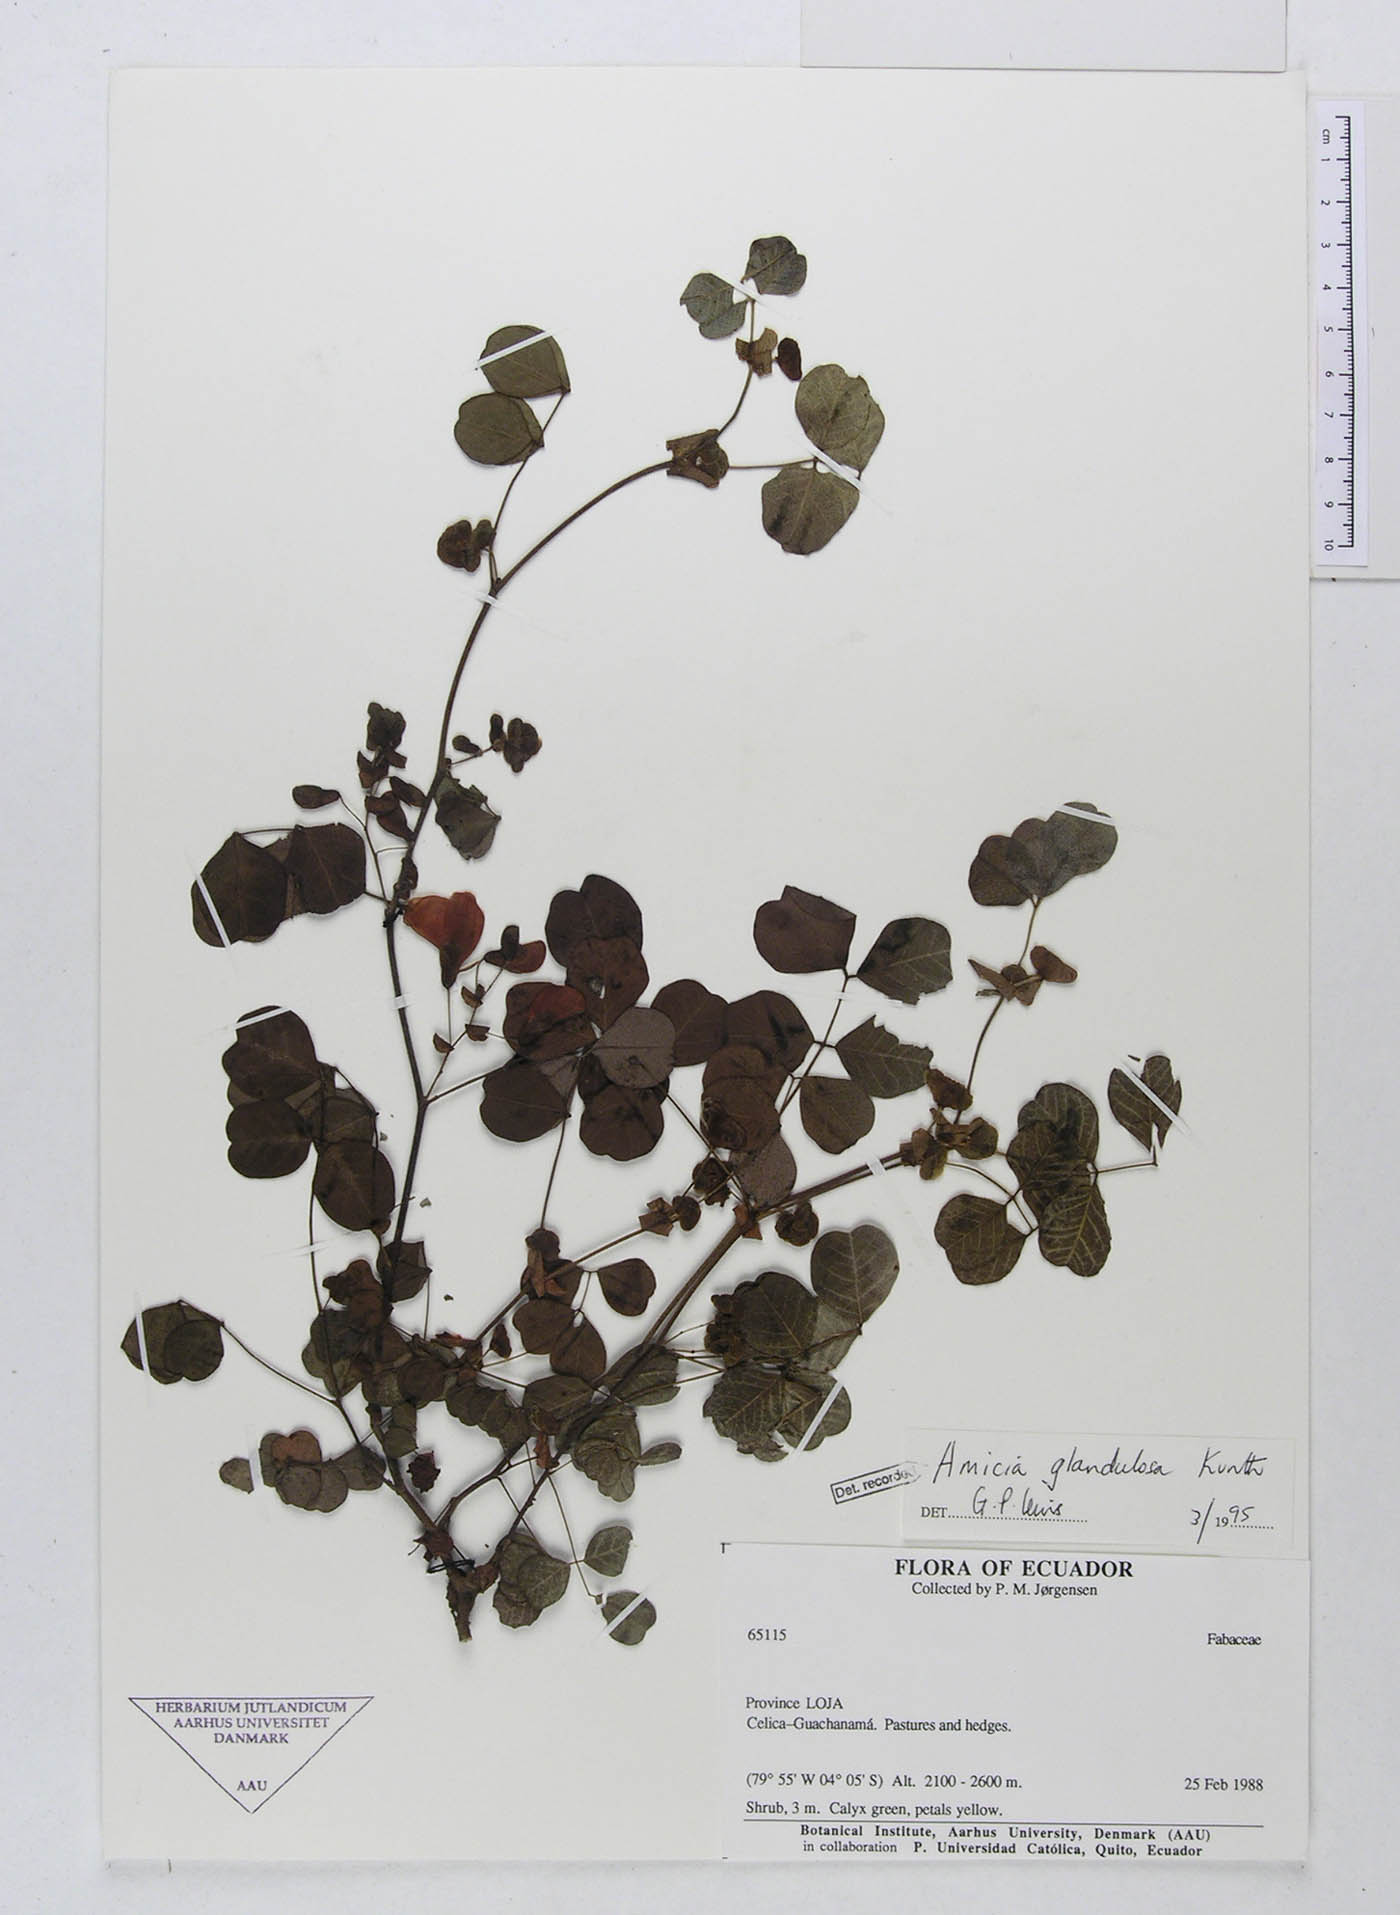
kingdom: Plantae
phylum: Tracheophyta
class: Magnoliopsida
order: Fabales
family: Fabaceae
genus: Amicia
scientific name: Amicia glandulosa
